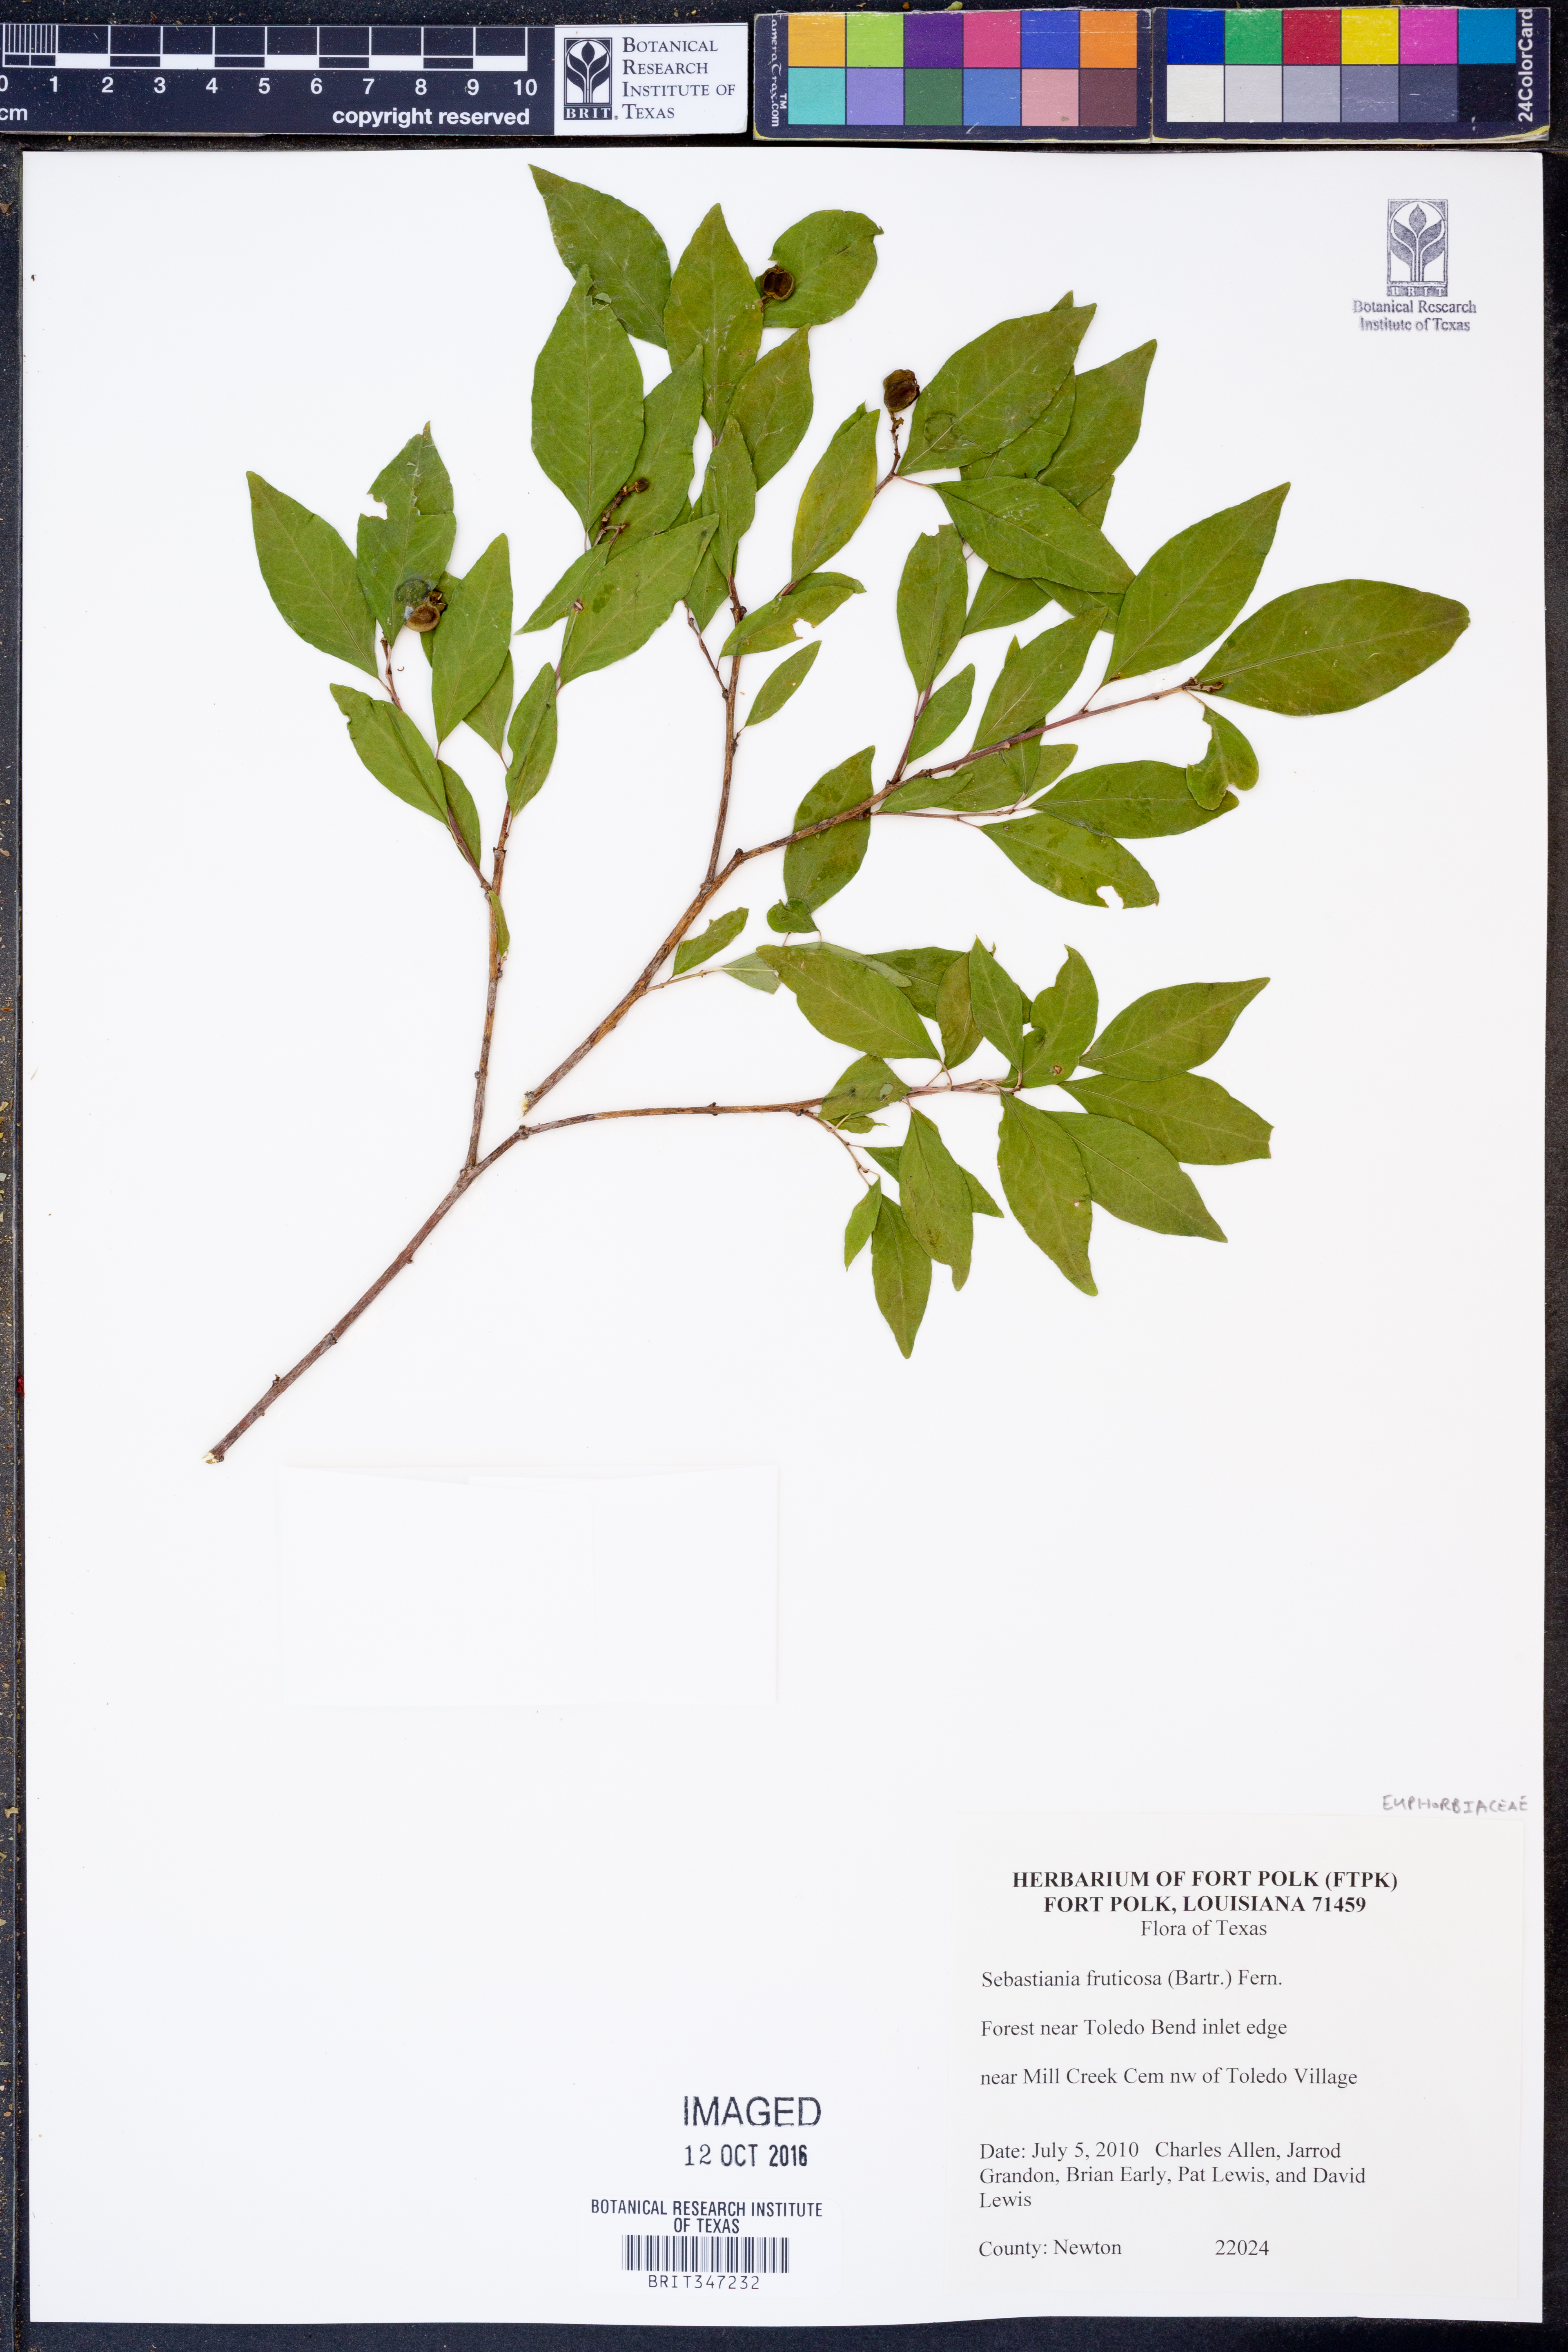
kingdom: Plantae
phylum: Tracheophyta
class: Magnoliopsida
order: Malpighiales
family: Euphorbiaceae
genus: Ditrysinia
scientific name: Ditrysinia fruticosa
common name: Gulf sebastian-bush
